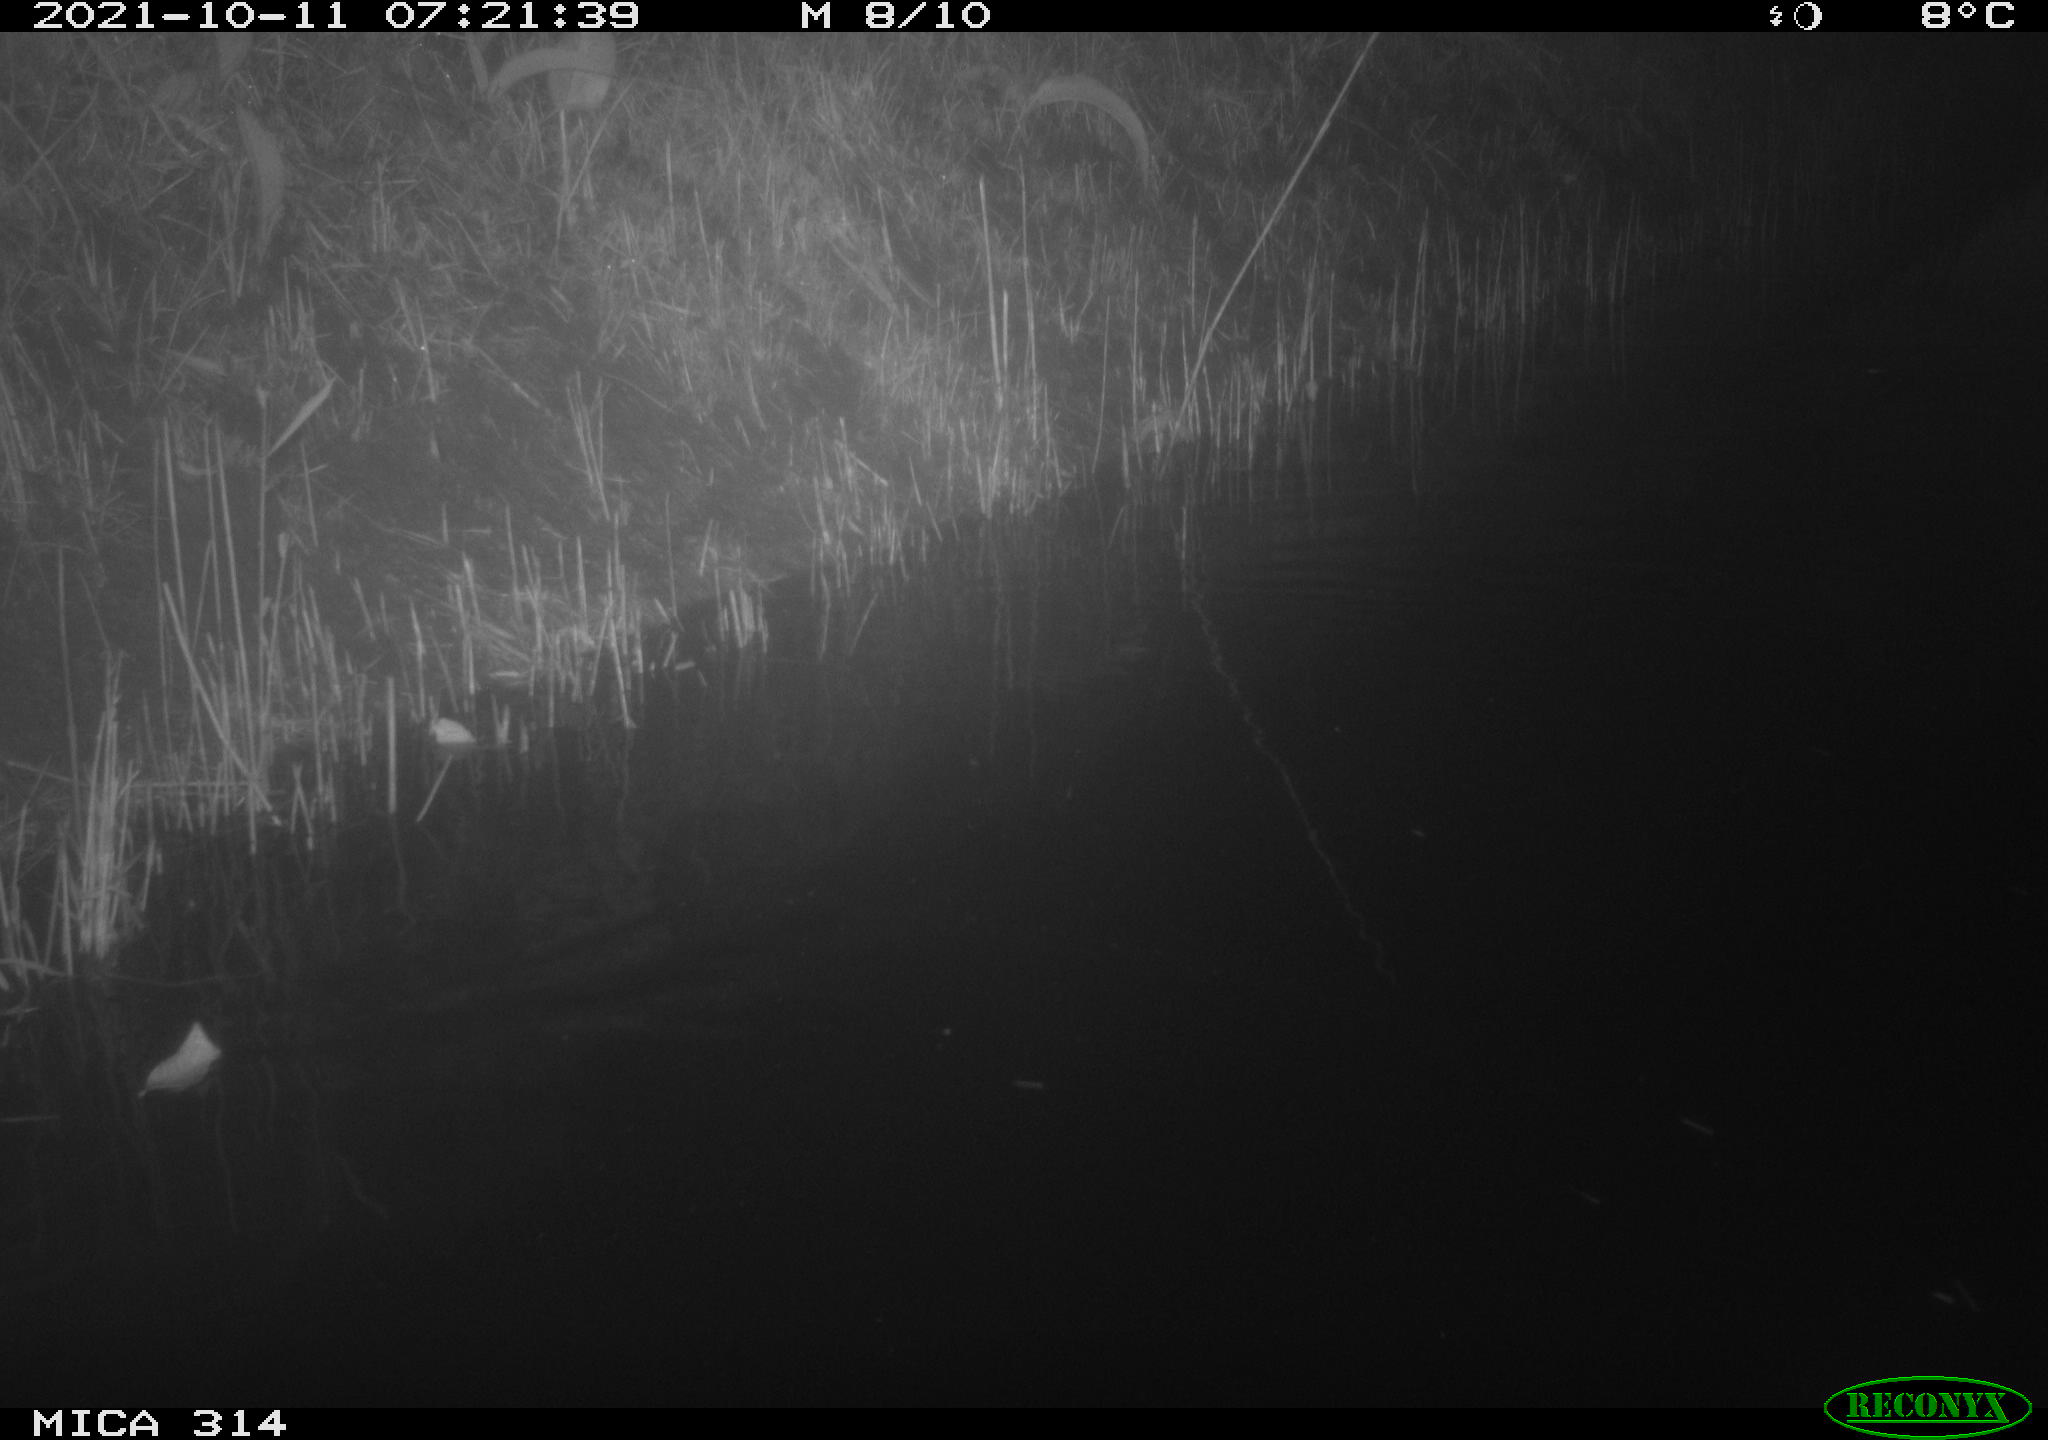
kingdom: Animalia
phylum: Chordata
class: Mammalia
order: Rodentia
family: Muridae
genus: Rattus
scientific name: Rattus norvegicus
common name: Brown rat
